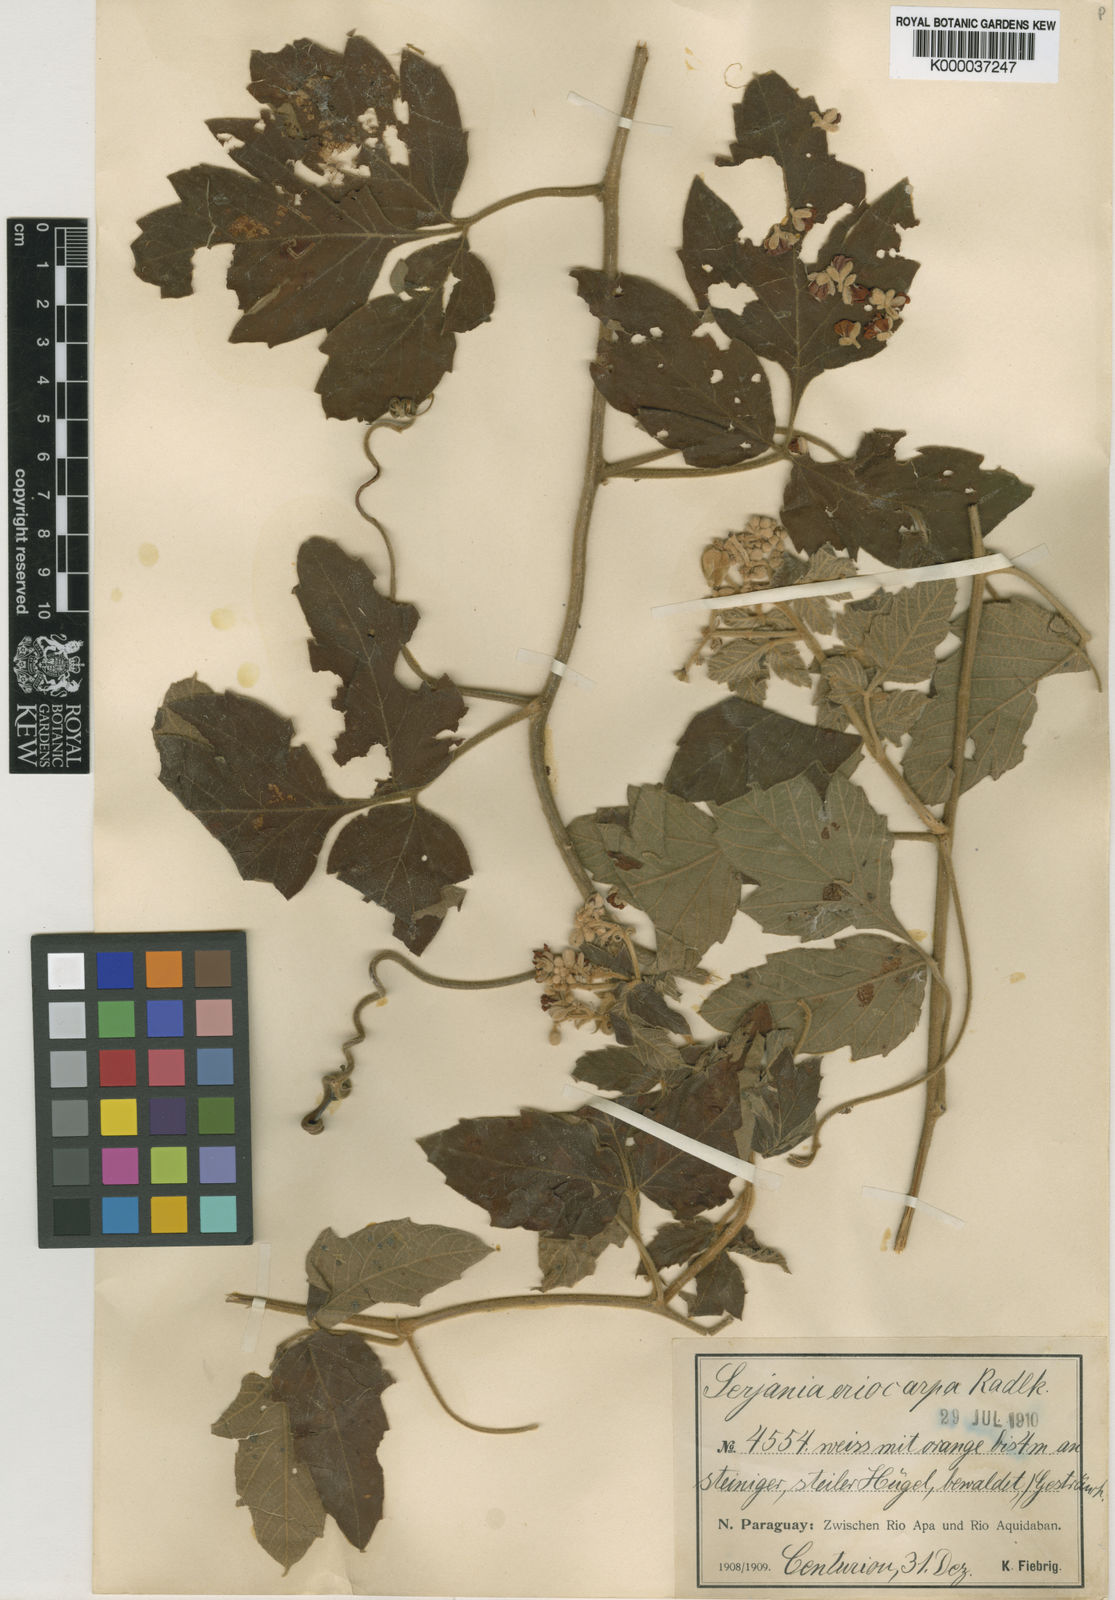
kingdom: Plantae
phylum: Tracheophyta
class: Magnoliopsida
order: Sapindales
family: Sapindaceae
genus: Serjania
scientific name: Serjania eriocarpa
